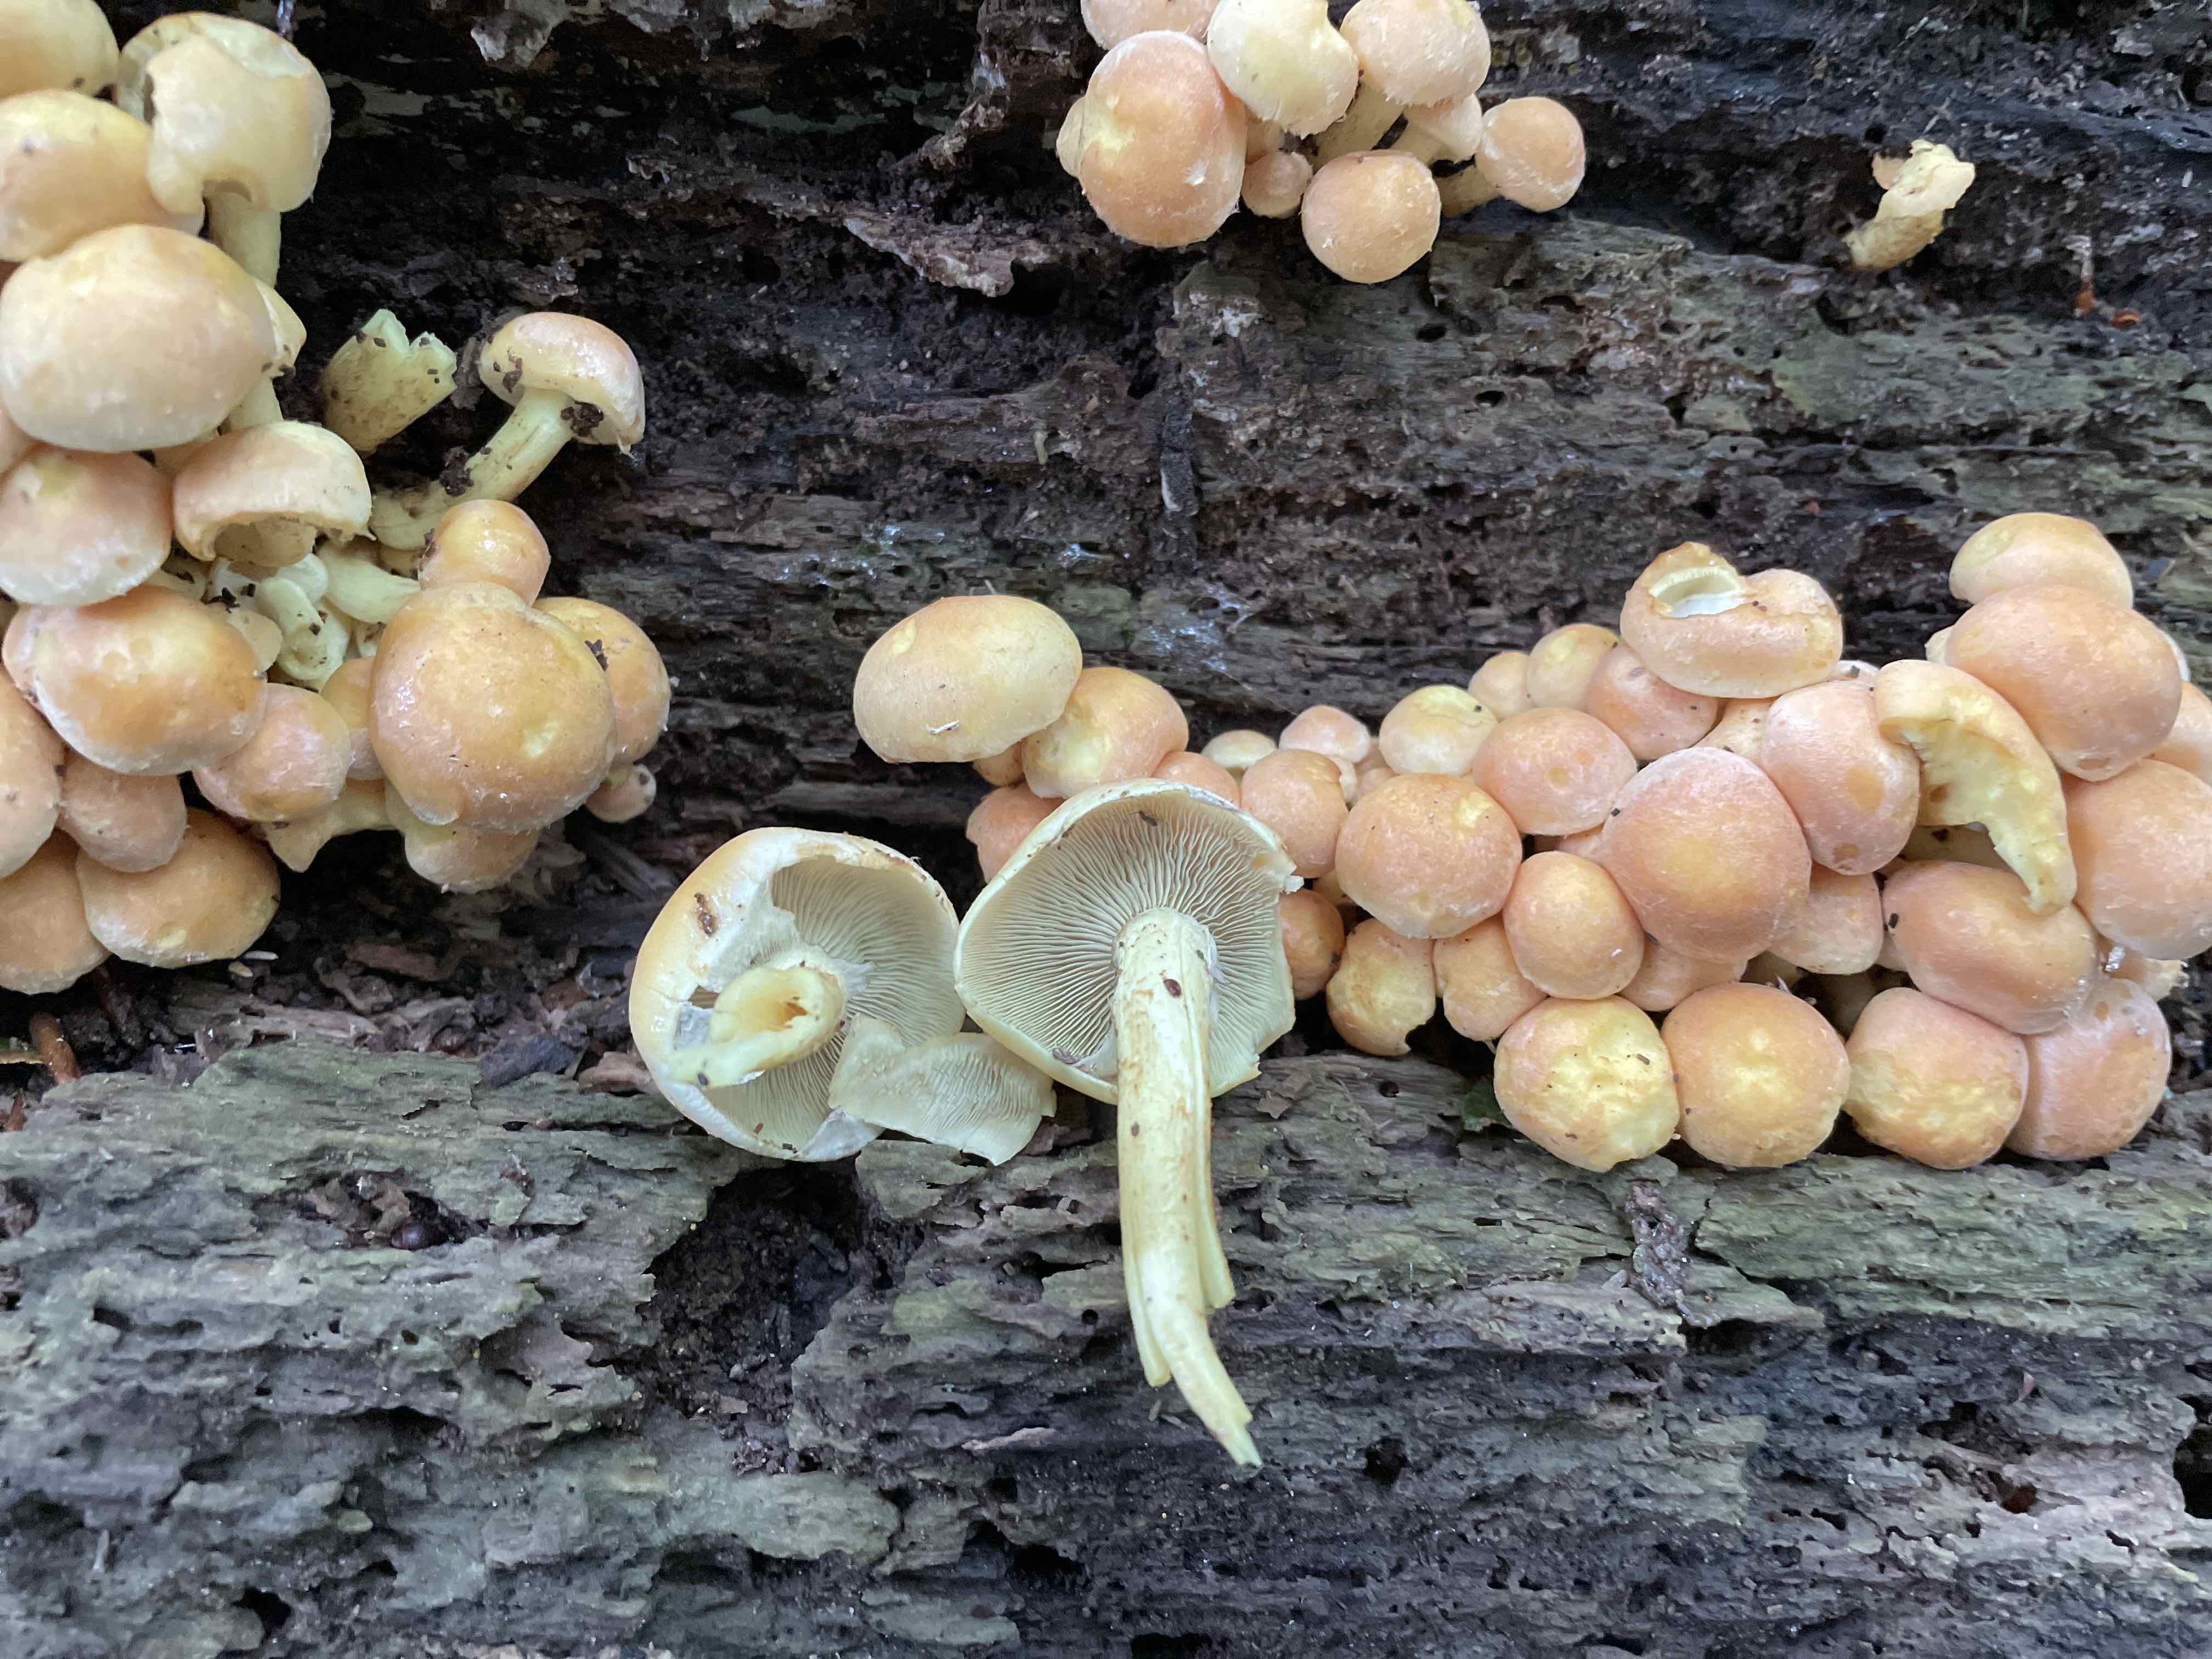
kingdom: Fungi
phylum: Basidiomycota
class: Agaricomycetes
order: Agaricales
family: Strophariaceae
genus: Hypholoma
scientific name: Hypholoma fasciculare
